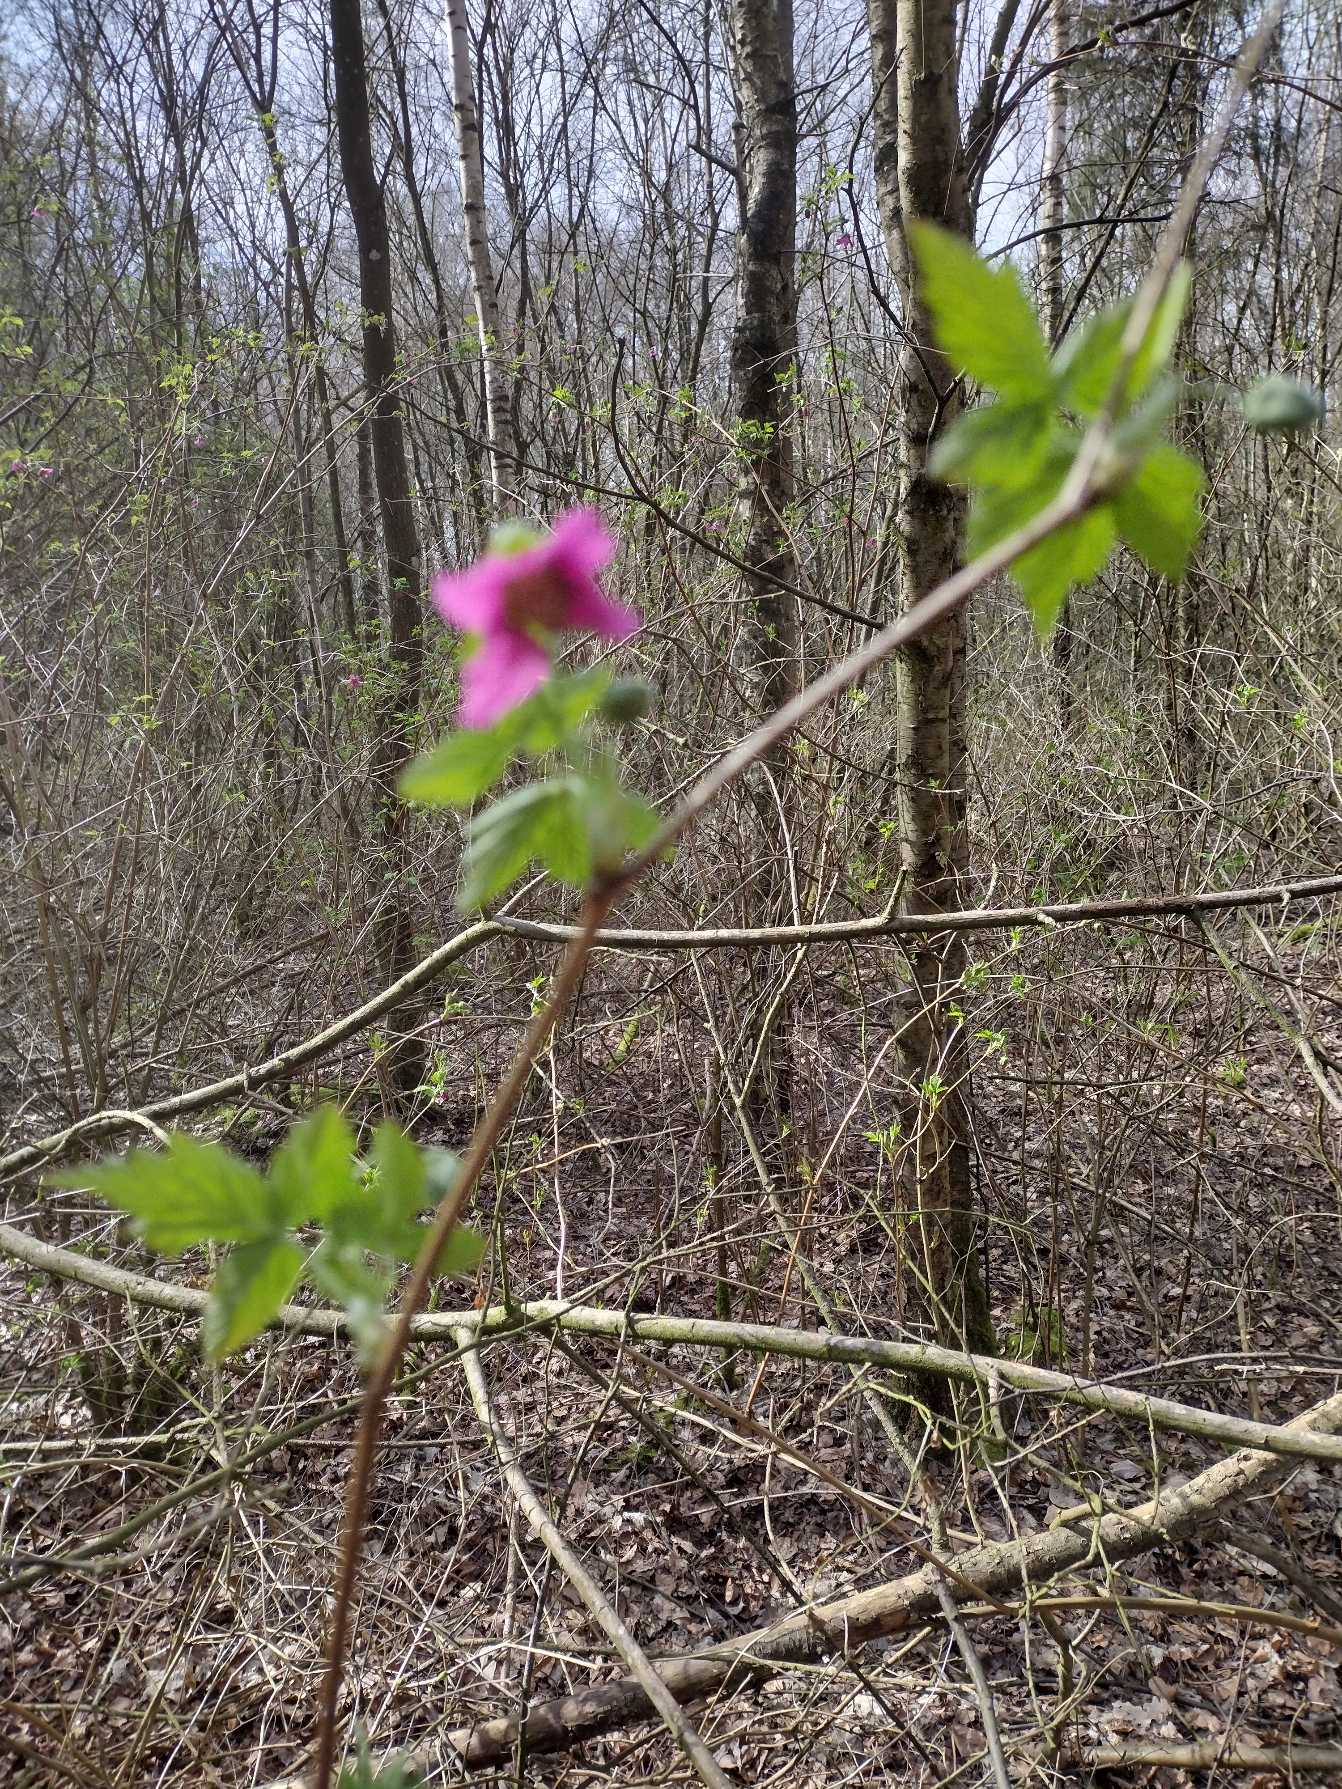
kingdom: Plantae
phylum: Tracheophyta
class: Magnoliopsida
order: Rosales
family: Rosaceae
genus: Rubus
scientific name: Rubus spectabilis
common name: Laksebær
